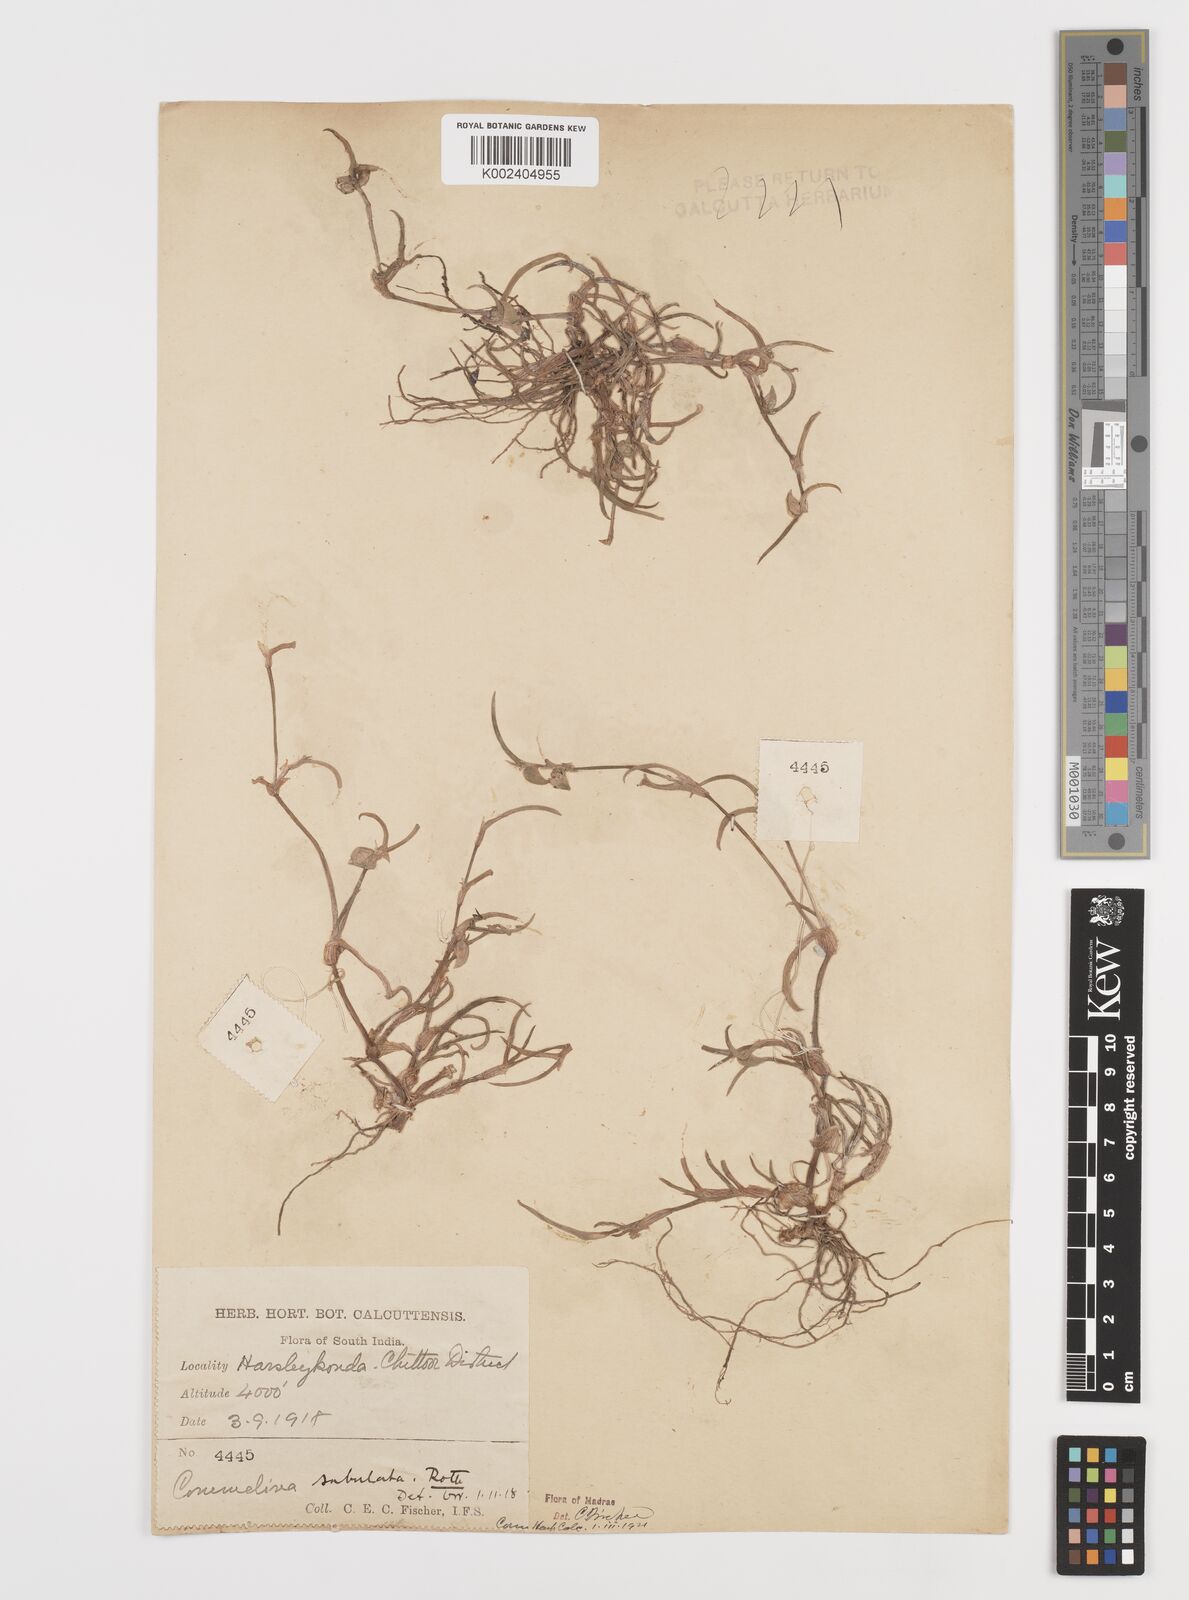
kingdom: Plantae
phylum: Tracheophyta
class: Liliopsida
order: Commelinales
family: Commelinaceae
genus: Commelina
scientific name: Commelina subulata
